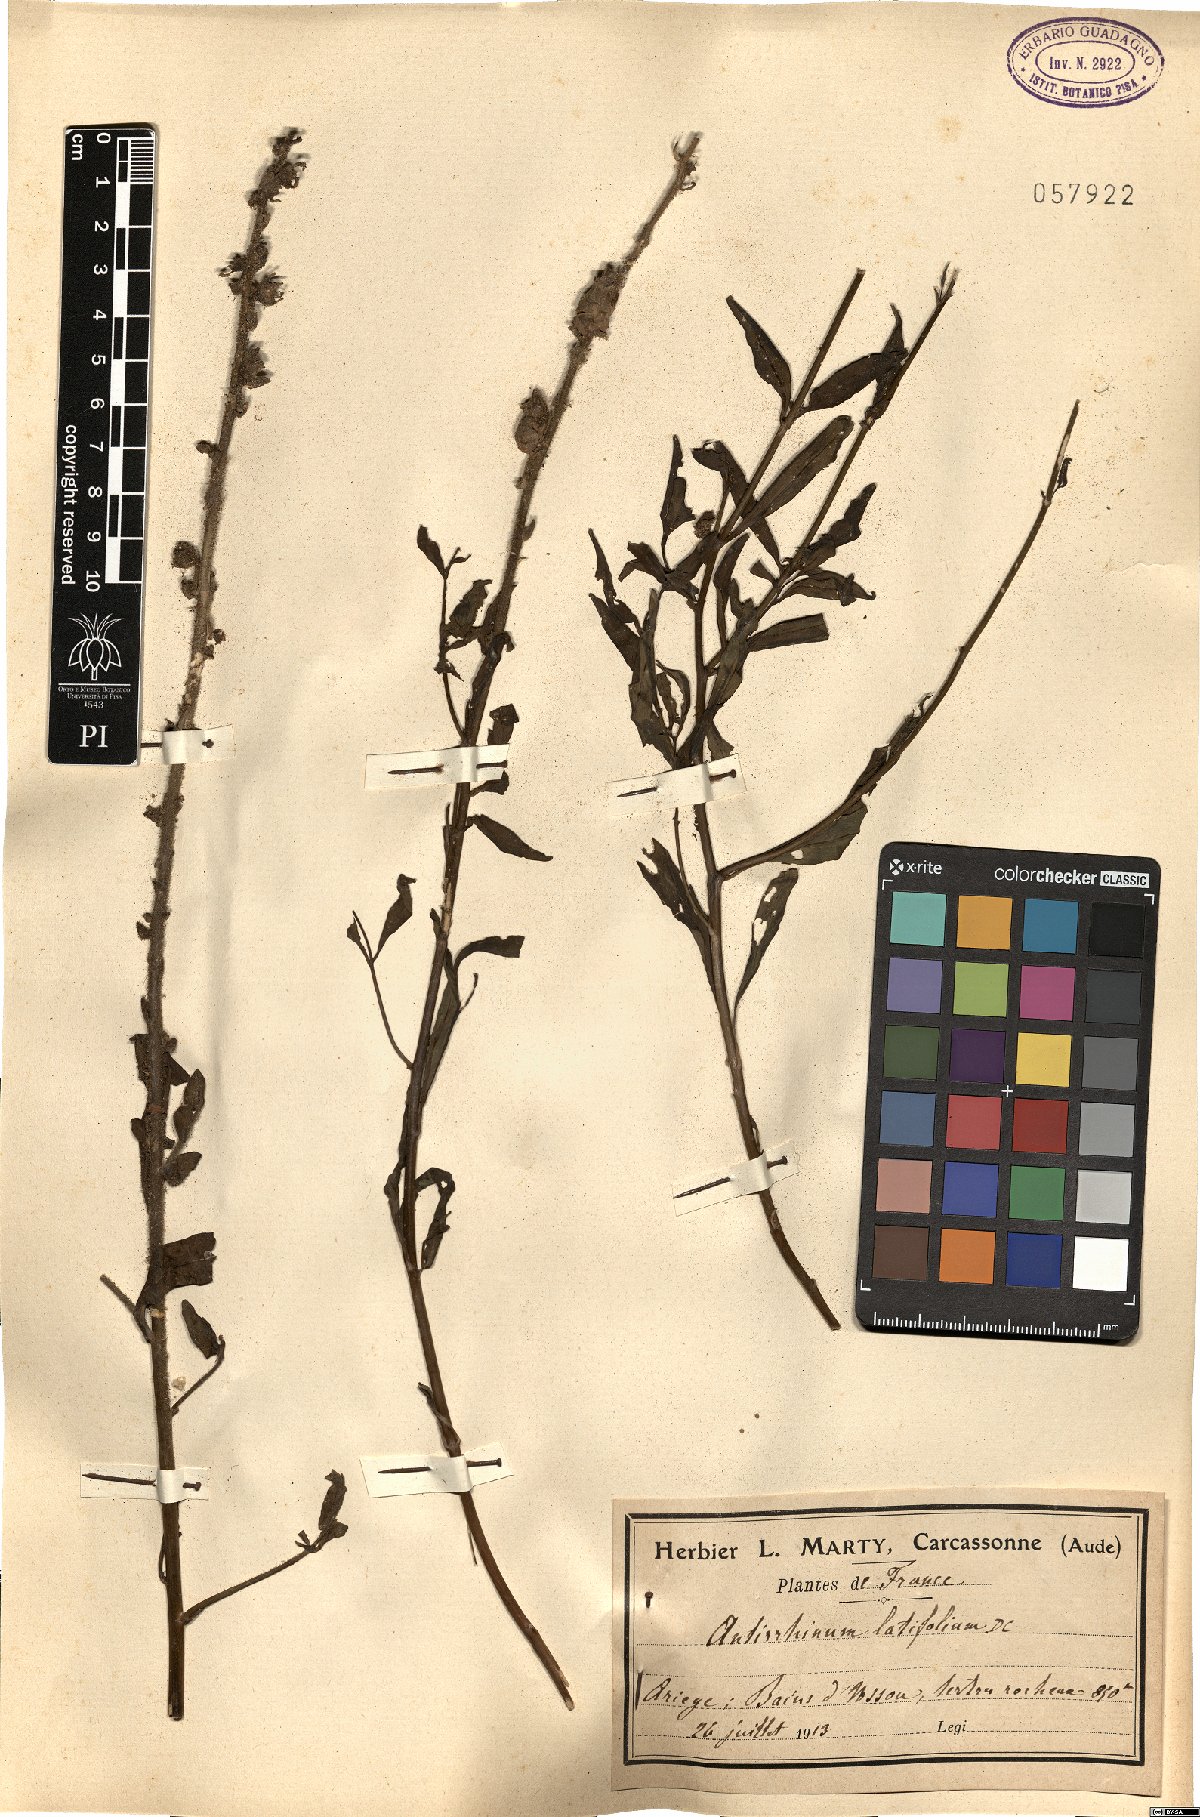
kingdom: Plantae
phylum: Tracheophyta
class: Magnoliopsida
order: Lamiales
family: Plantaginaceae
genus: Antirrhinum
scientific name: Antirrhinum latifolium
